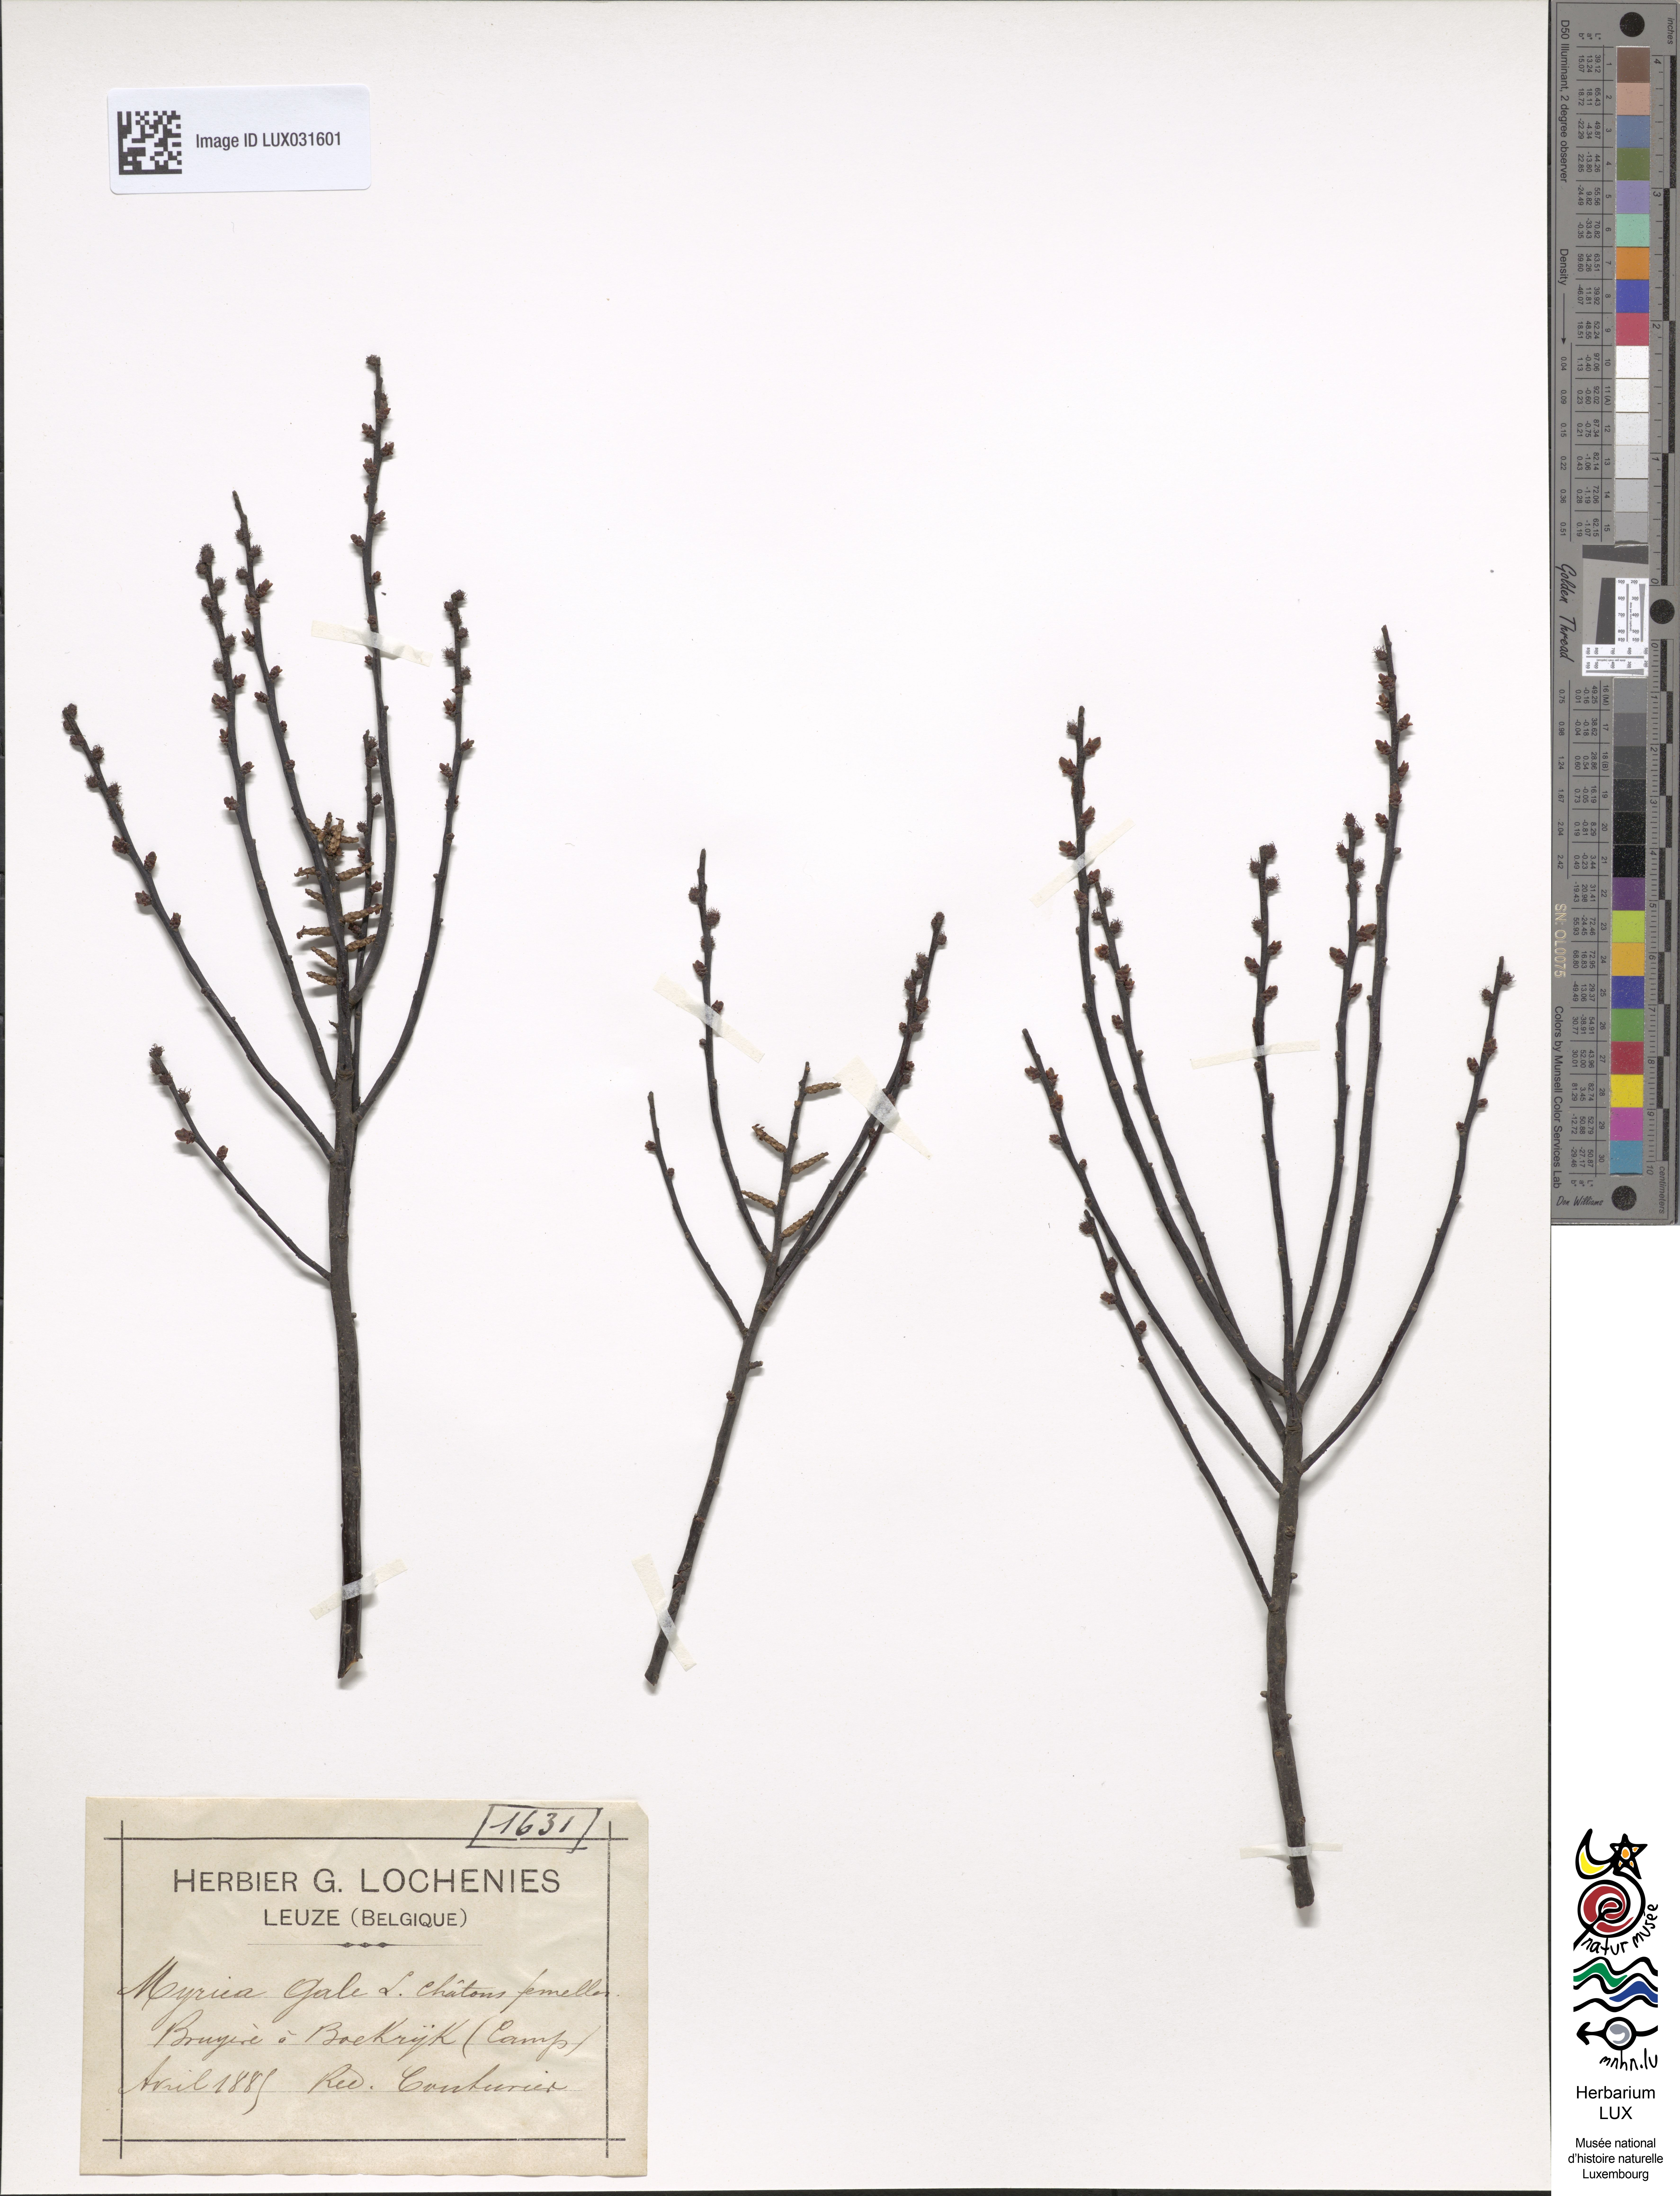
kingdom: Plantae
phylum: Tracheophyta
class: Magnoliopsida
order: Fagales
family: Myricaceae
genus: Myrica
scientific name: Myrica gale
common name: Sweet gale
